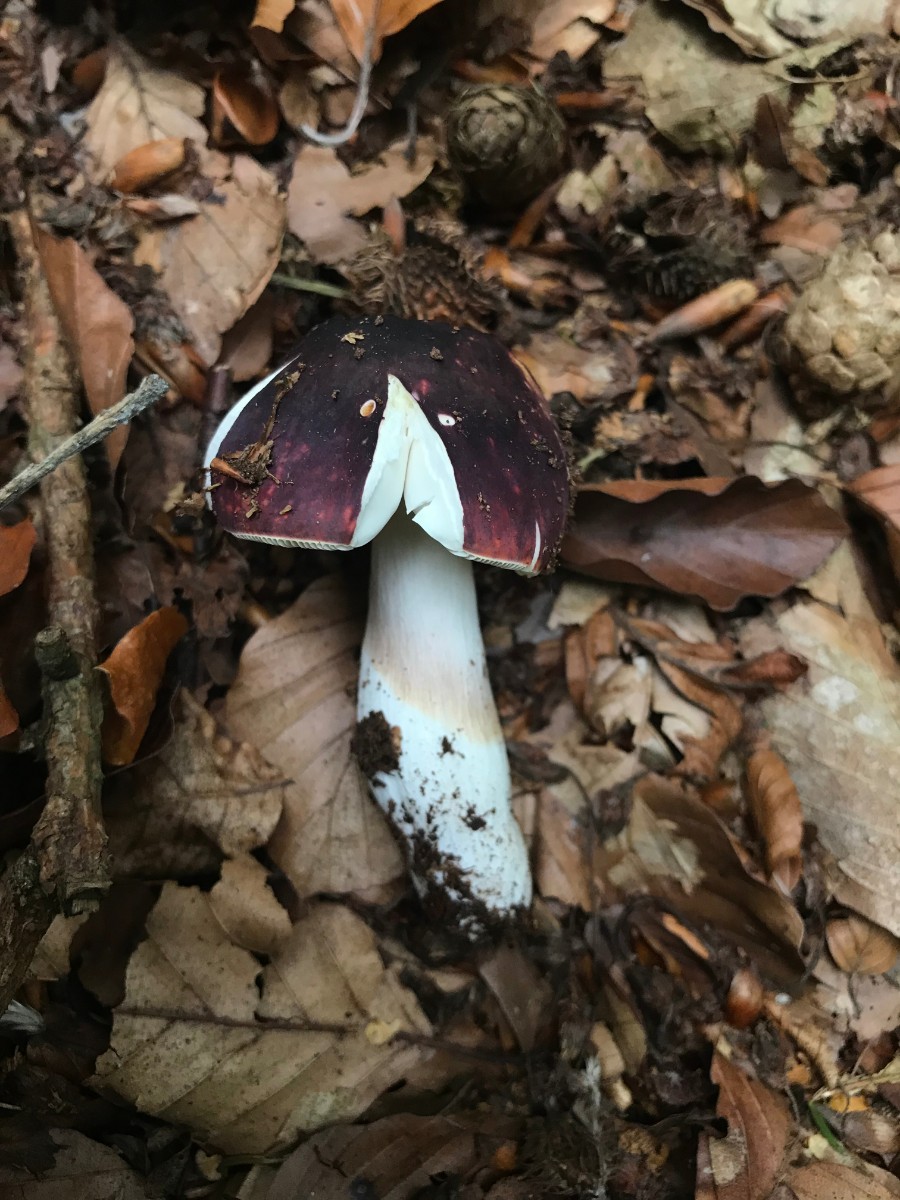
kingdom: Fungi
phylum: Basidiomycota
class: Agaricomycetes
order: Russulales
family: Russulaceae
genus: Russula
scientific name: Russula
